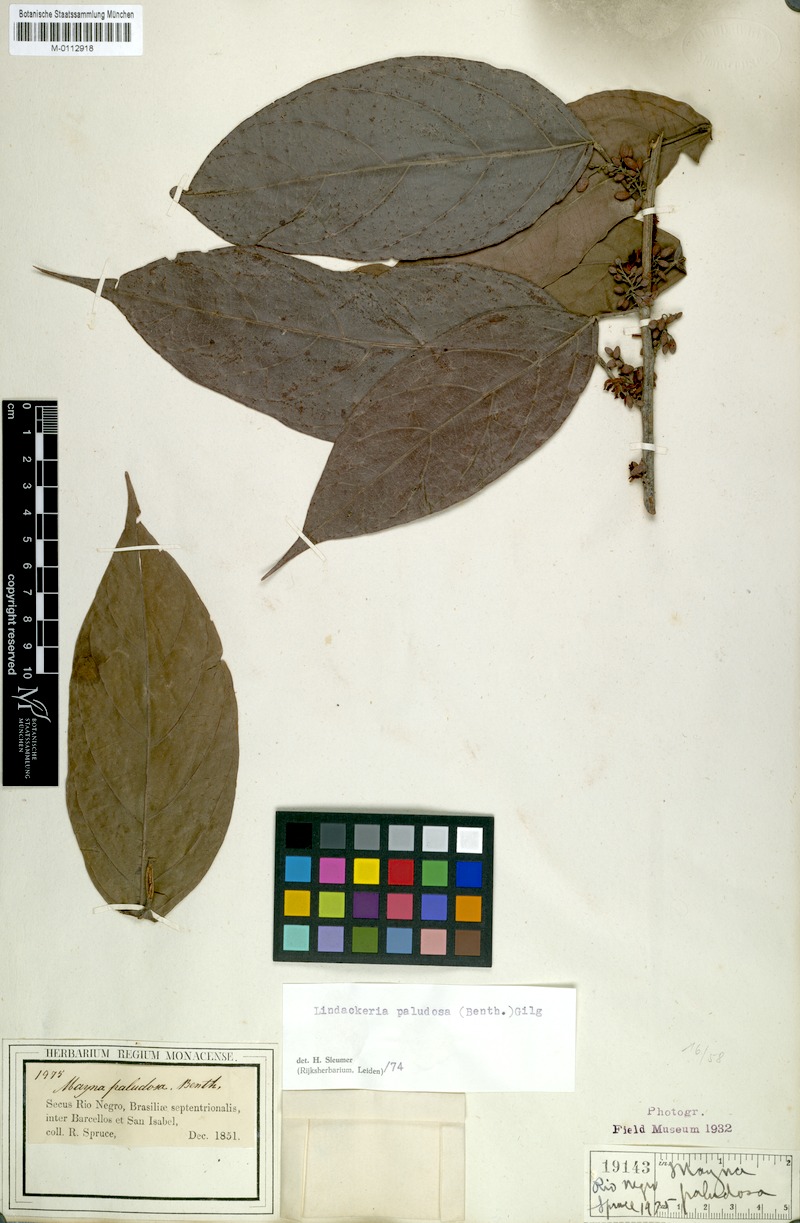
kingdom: Plantae
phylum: Tracheophyta
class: Magnoliopsida
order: Malpighiales
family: Achariaceae
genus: Lindackeria
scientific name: Lindackeria paludosa
